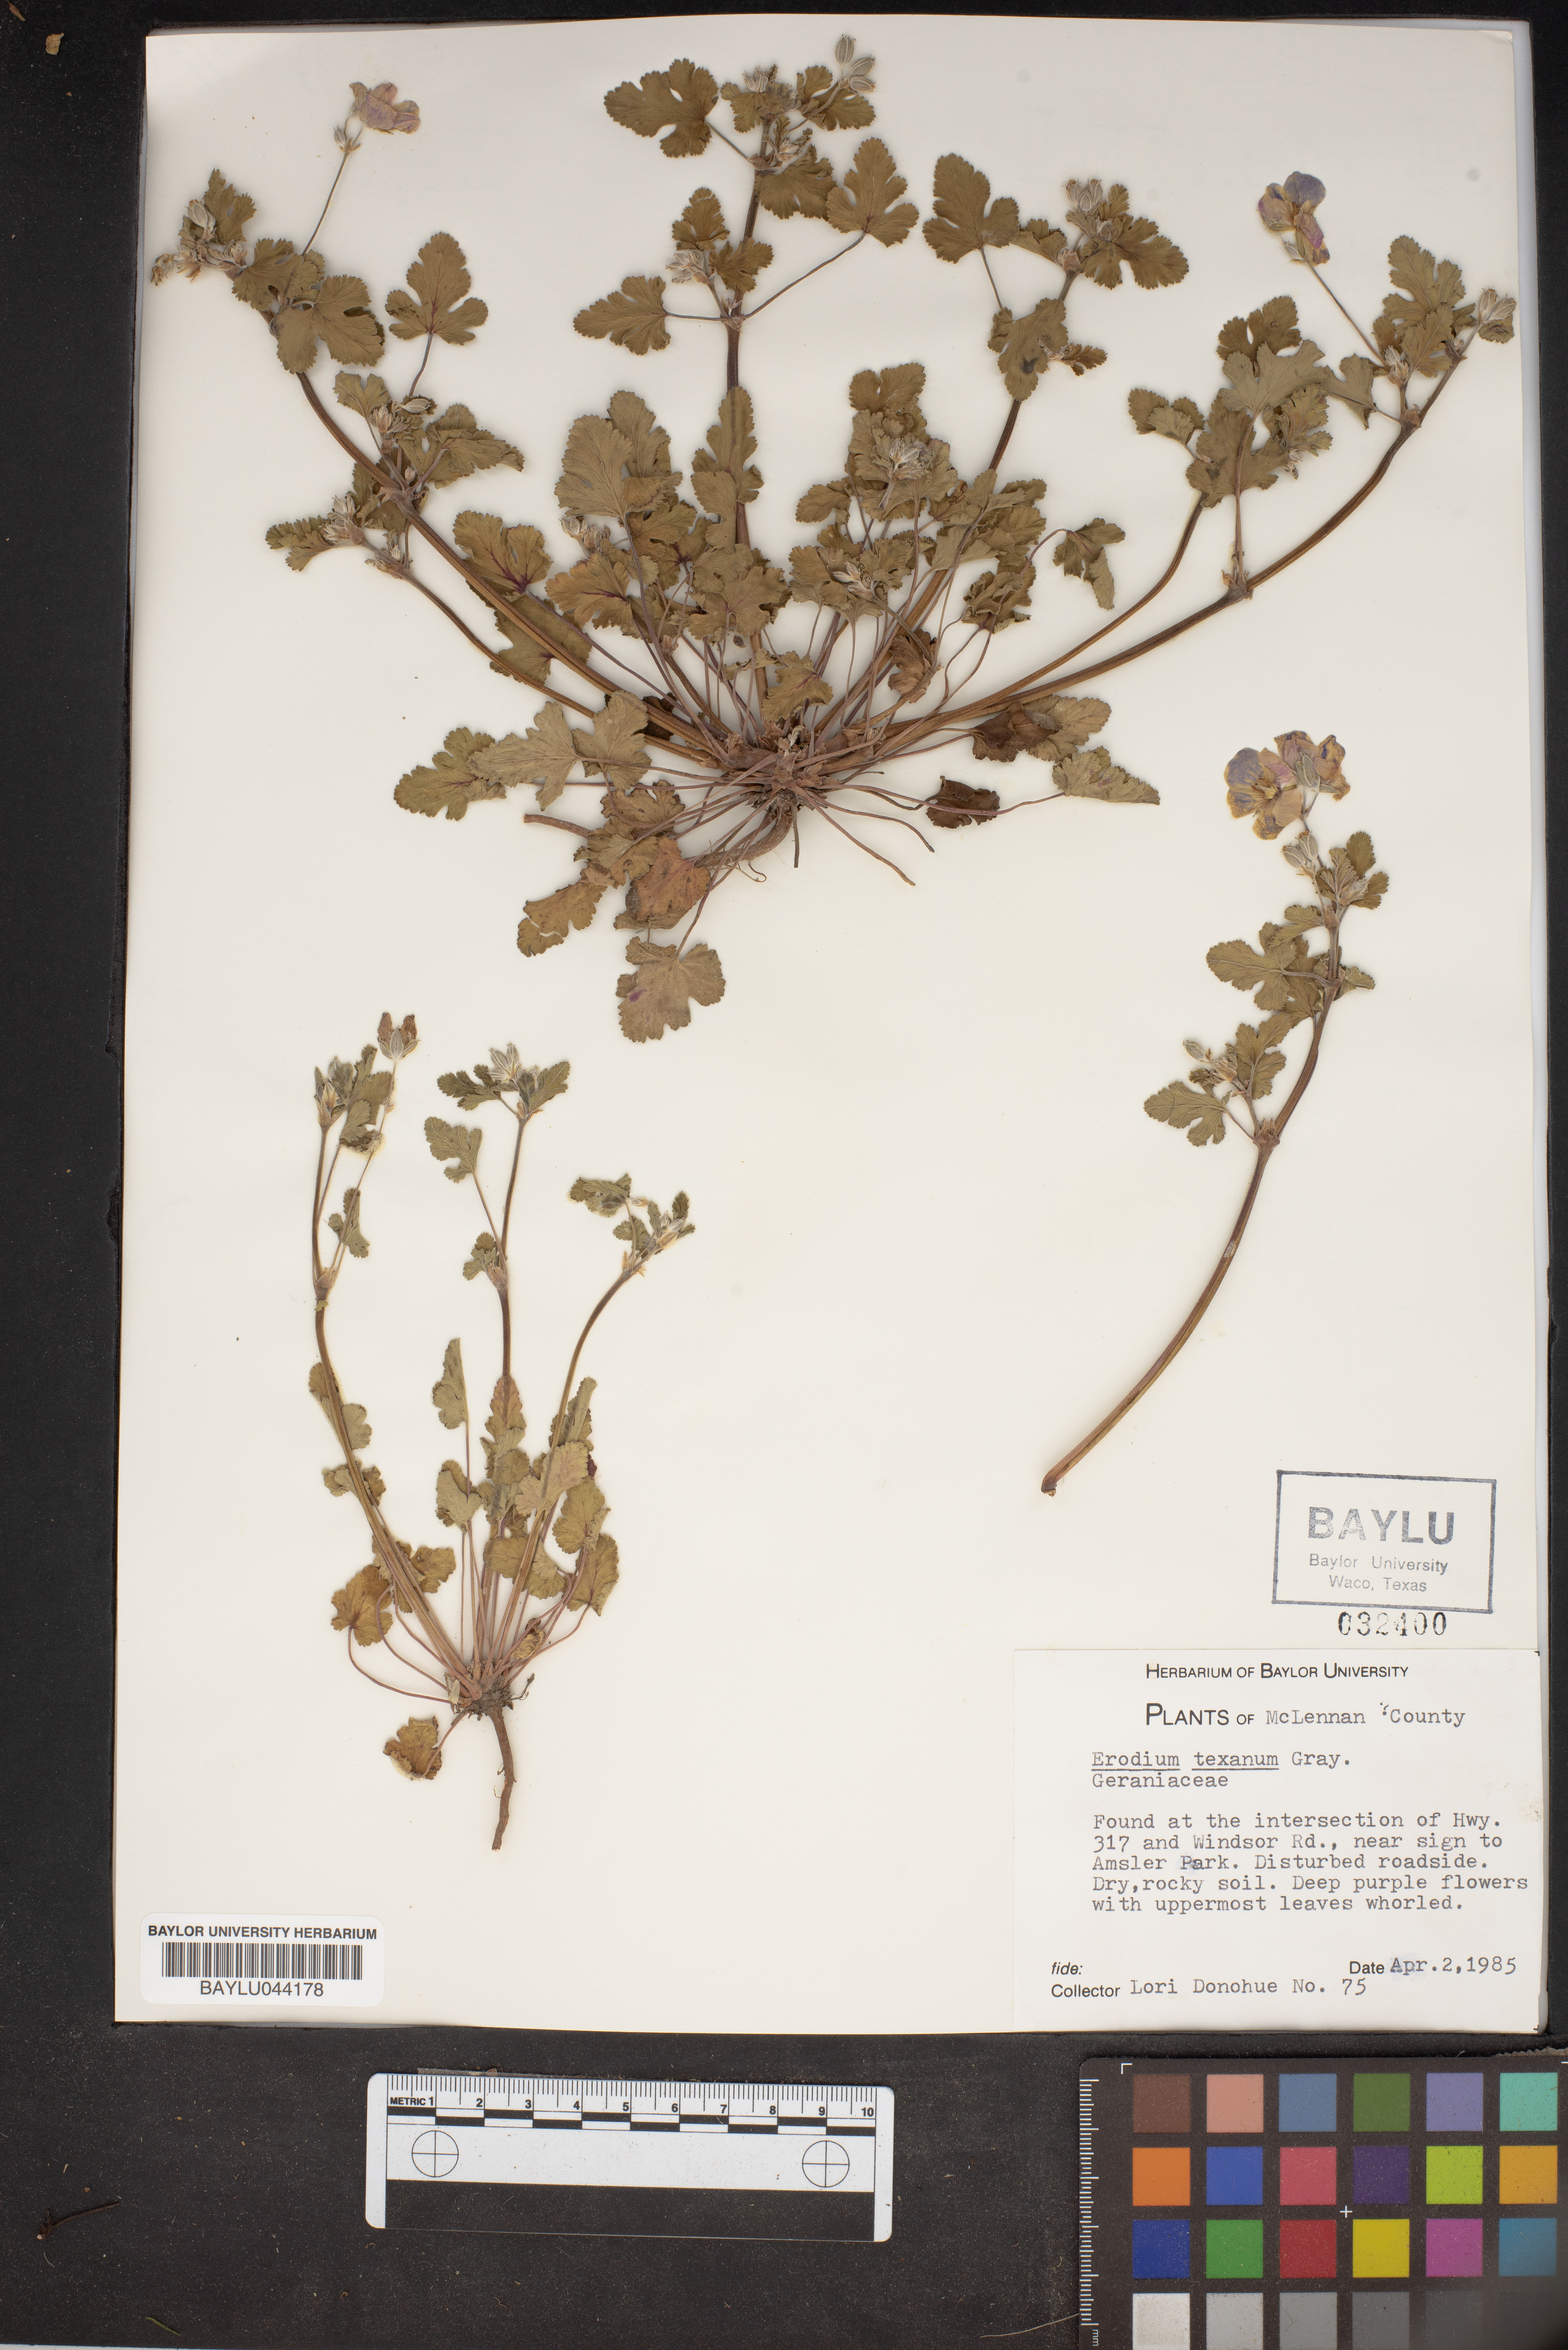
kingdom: Plantae
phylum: Tracheophyta
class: Magnoliopsida
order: Geraniales
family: Geraniaceae
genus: Erodium
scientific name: Erodium texanum
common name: Texas stork's-bill
